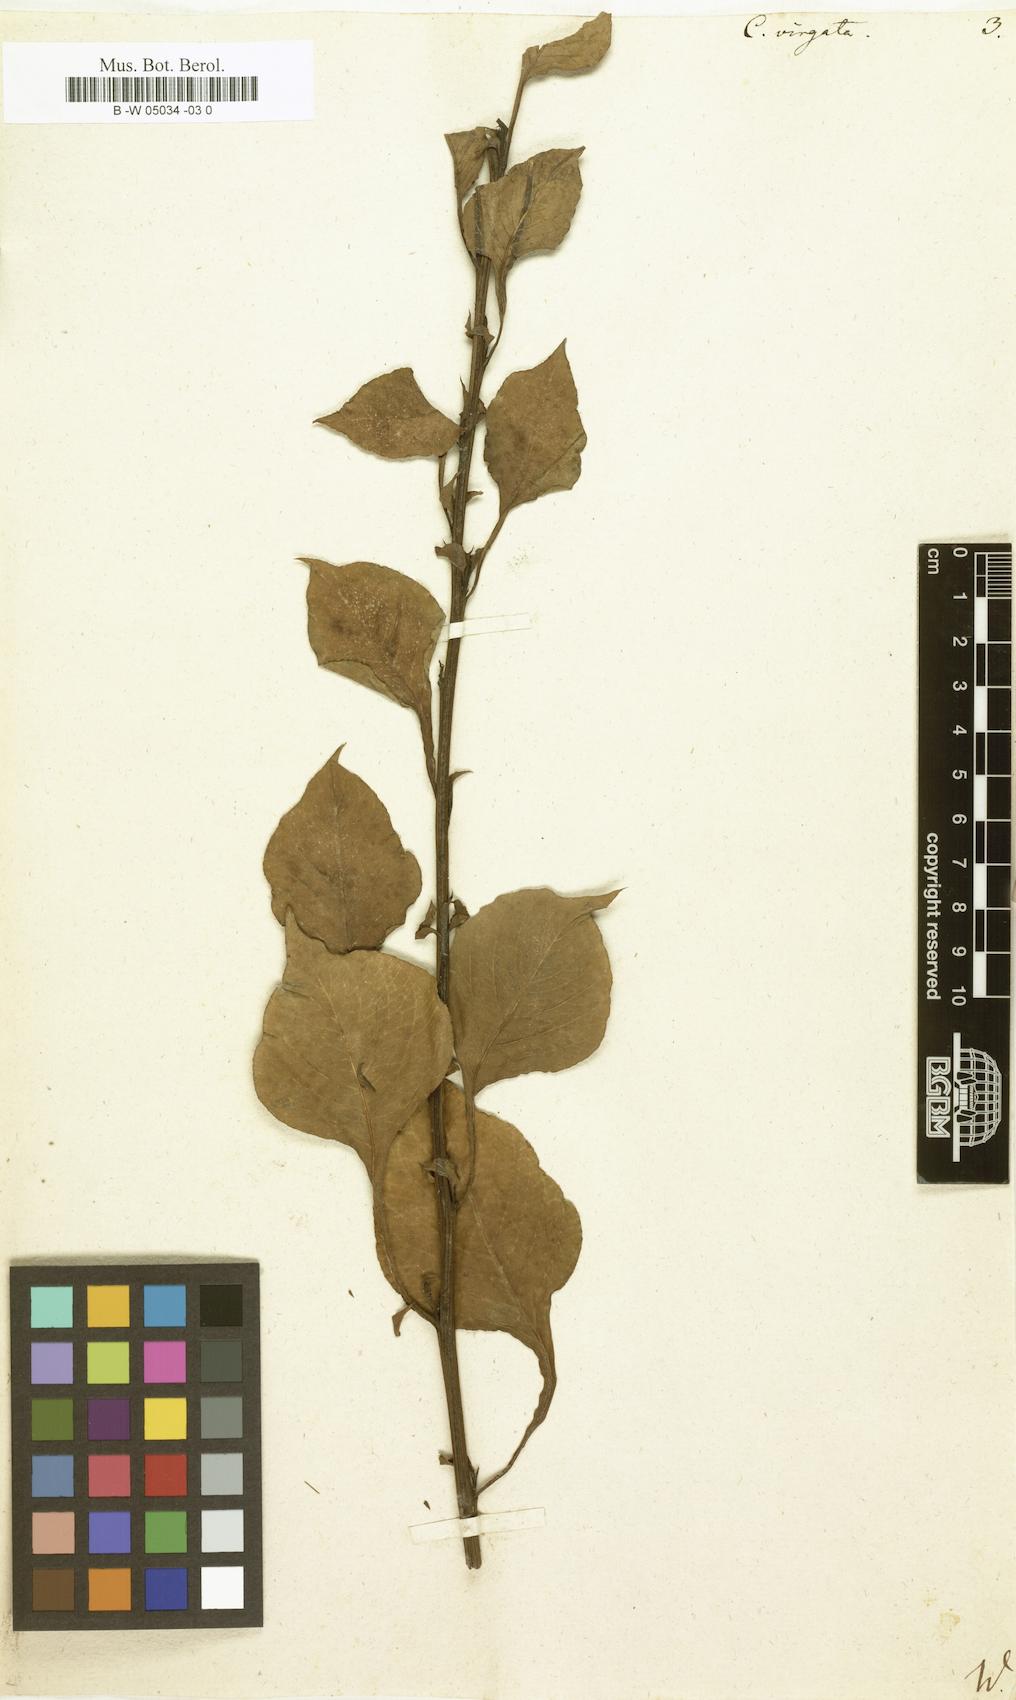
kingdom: Plantae
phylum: Tracheophyta
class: Magnoliopsida
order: Caryophyllales
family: Amaranthaceae
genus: Celosia
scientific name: Celosia virgata
